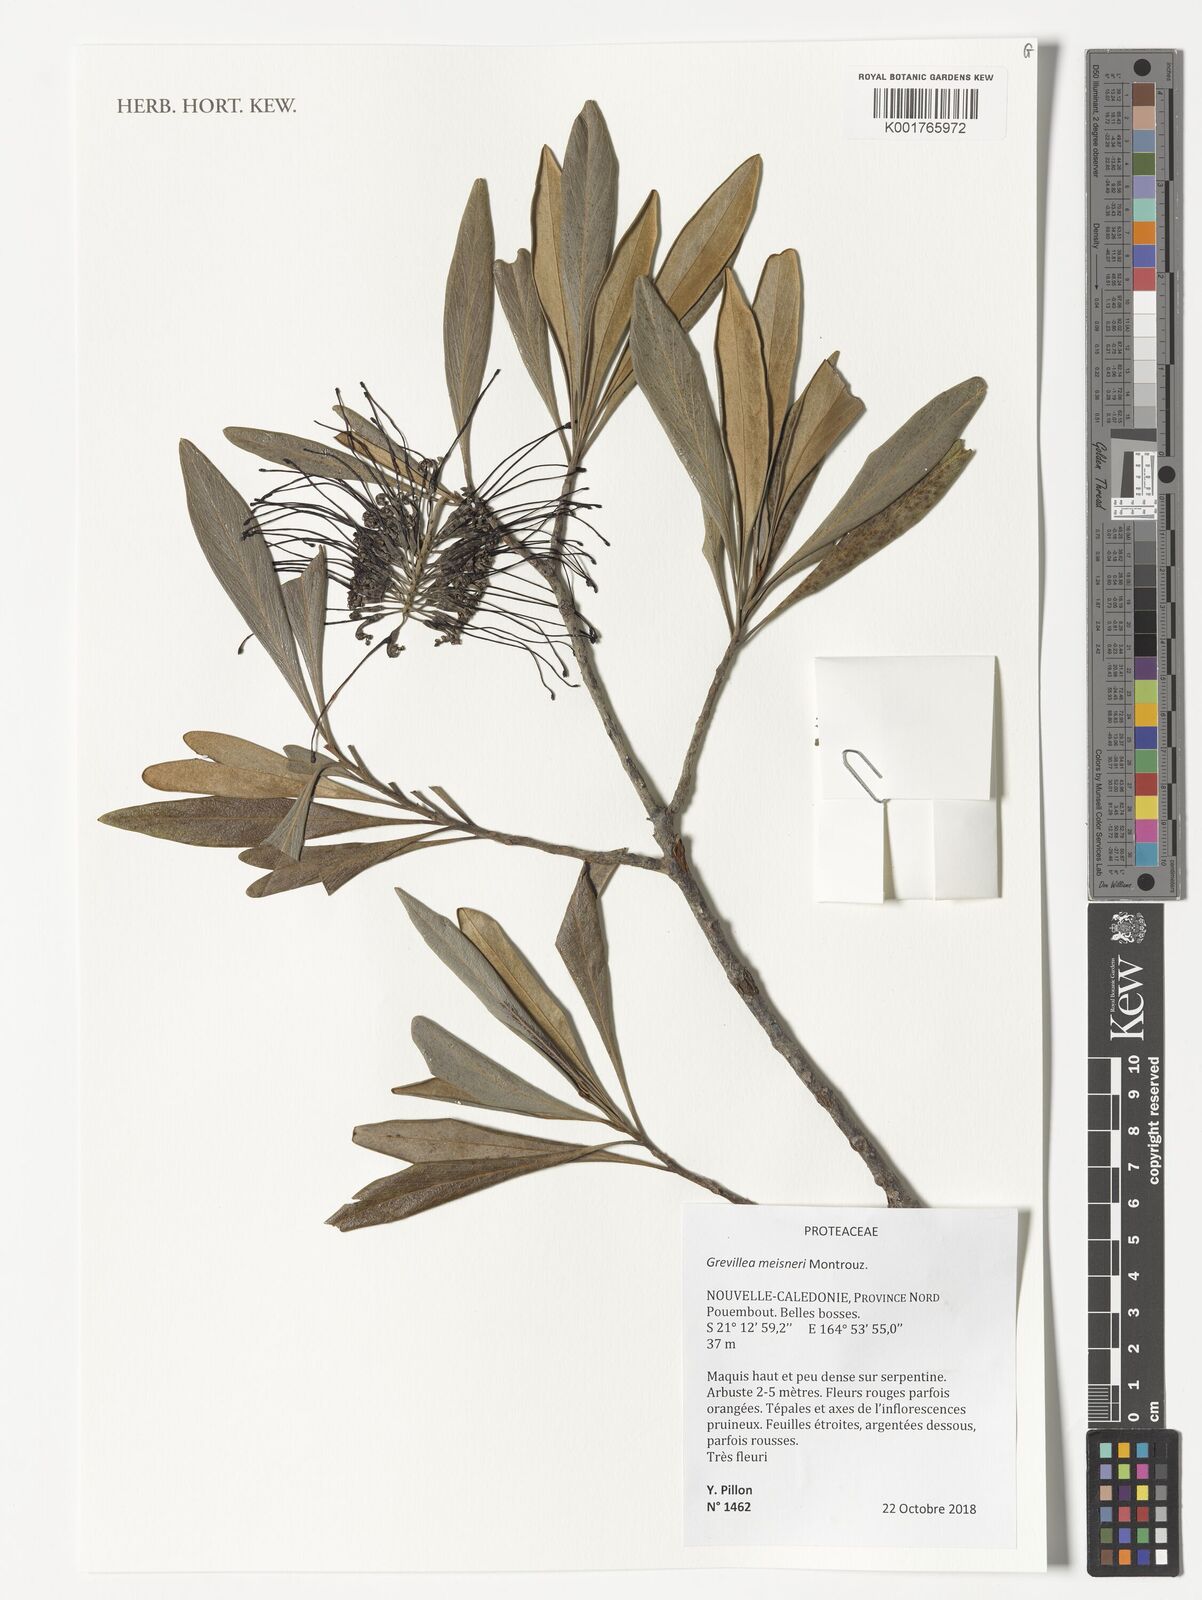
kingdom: Plantae
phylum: Tracheophyta
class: Magnoliopsida
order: Proteales
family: Proteaceae
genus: Grevillea
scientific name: Grevillea meisneri
